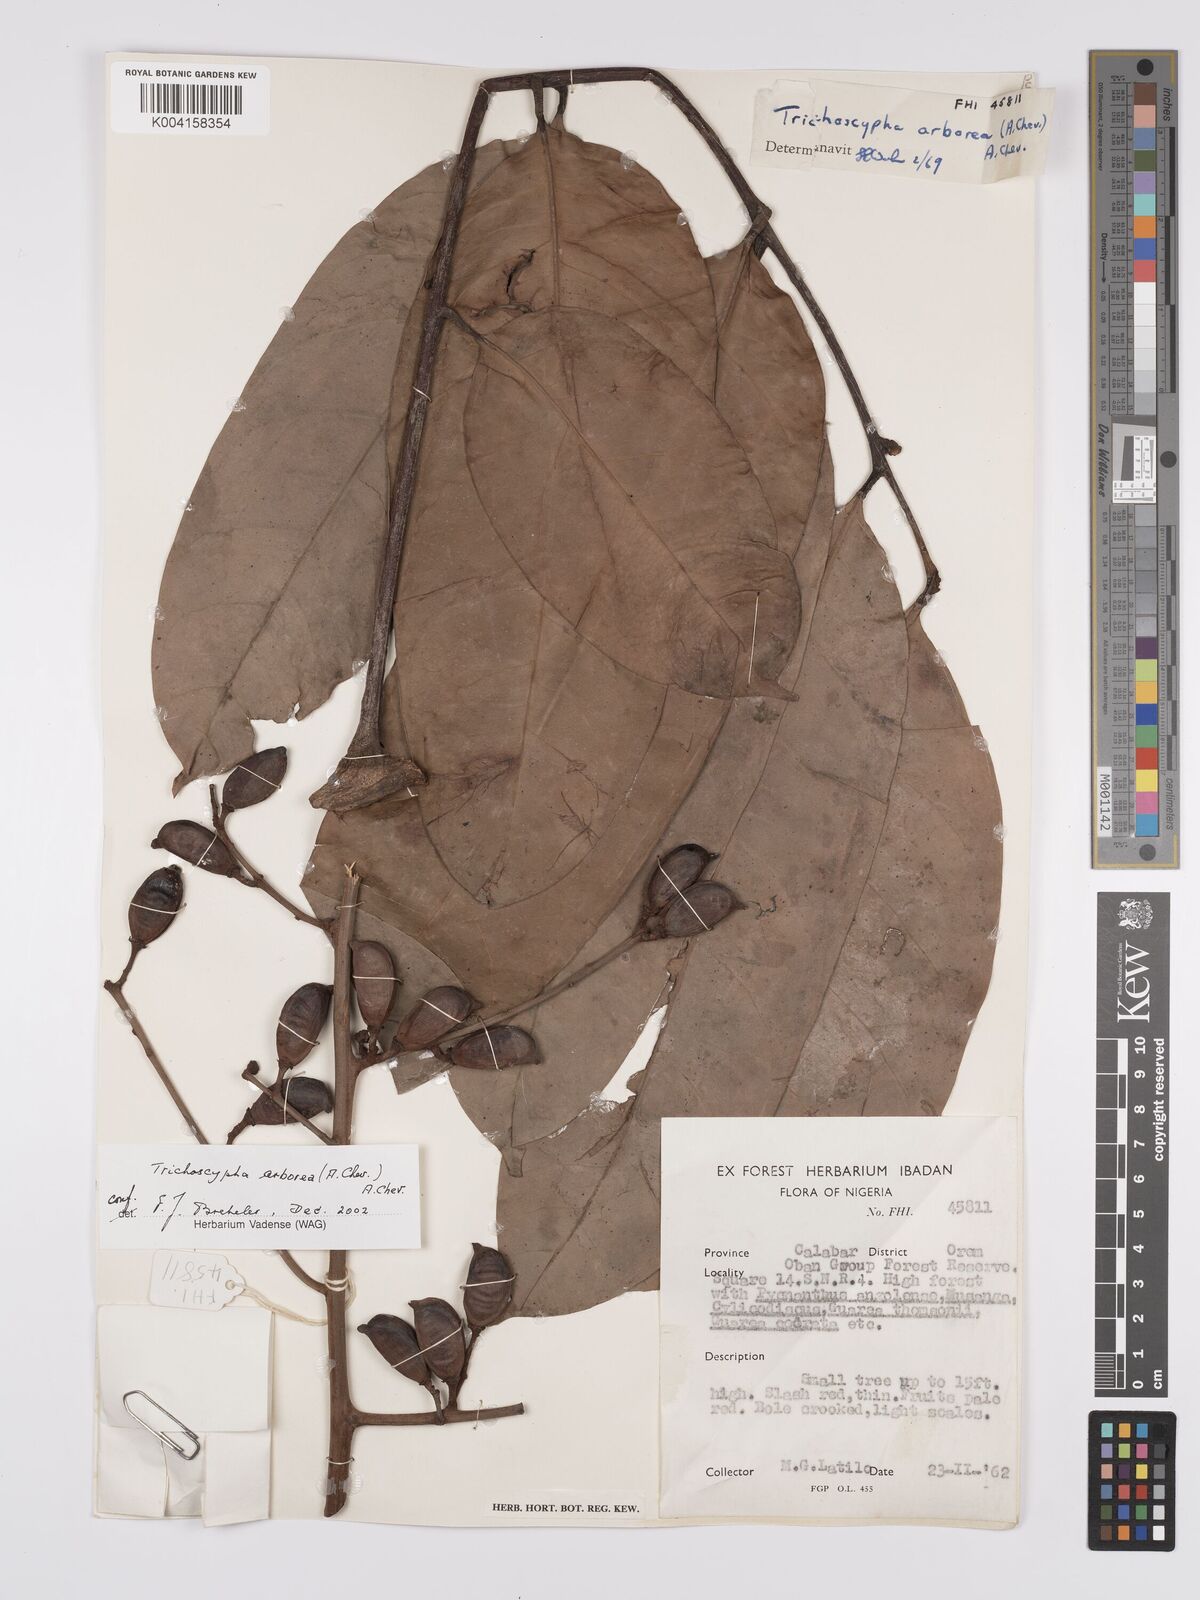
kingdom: Plantae
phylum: Tracheophyta
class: Magnoliopsida
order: Sapindales
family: Anacardiaceae
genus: Trichoscypha
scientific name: Trichoscypha arborea
